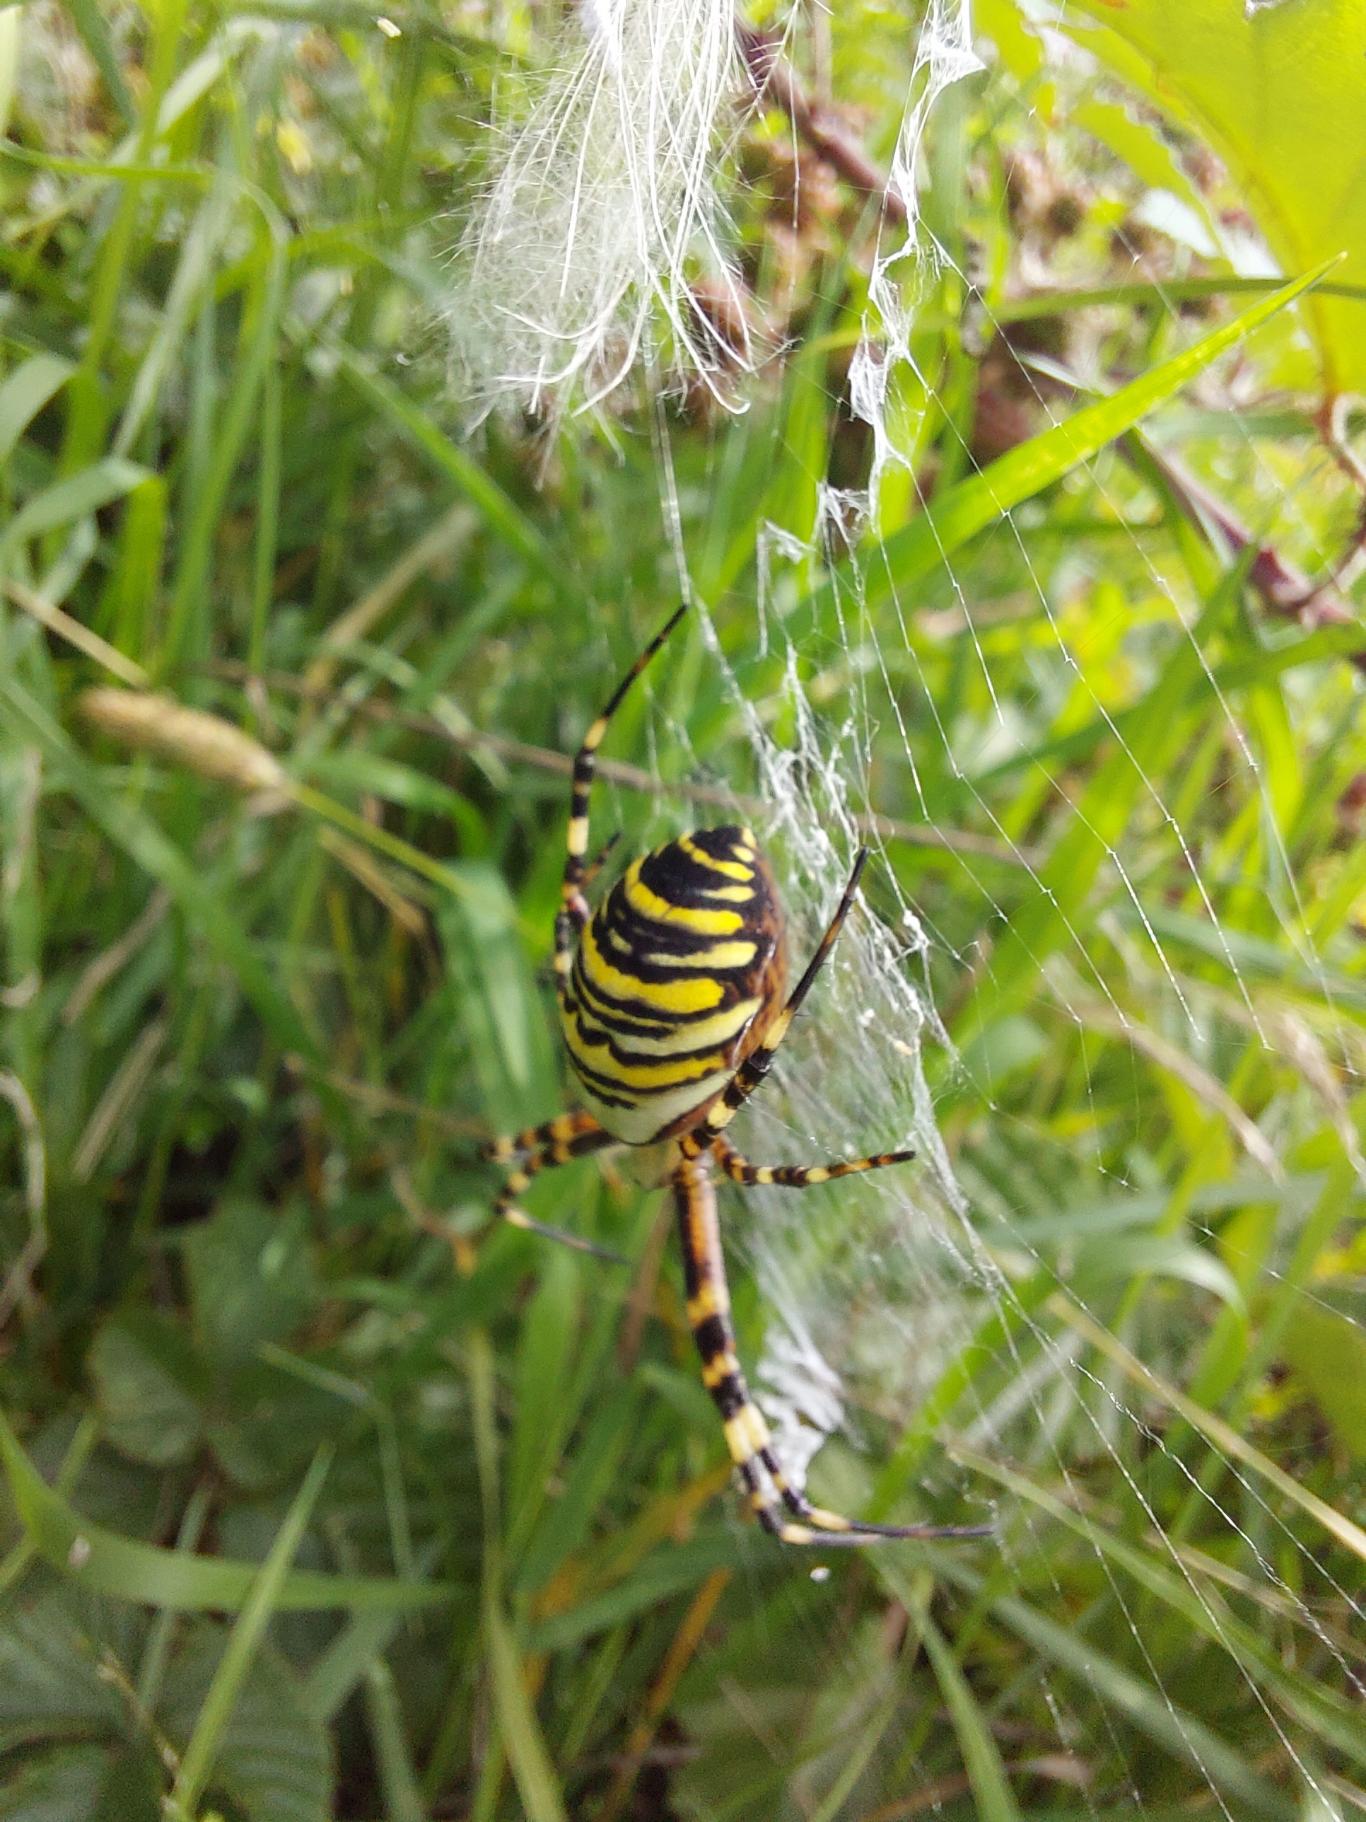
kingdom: Animalia
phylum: Arthropoda
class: Arachnida
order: Araneae
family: Araneidae
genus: Argiope
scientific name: Argiope bruennichi
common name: Hvepseedderkop
